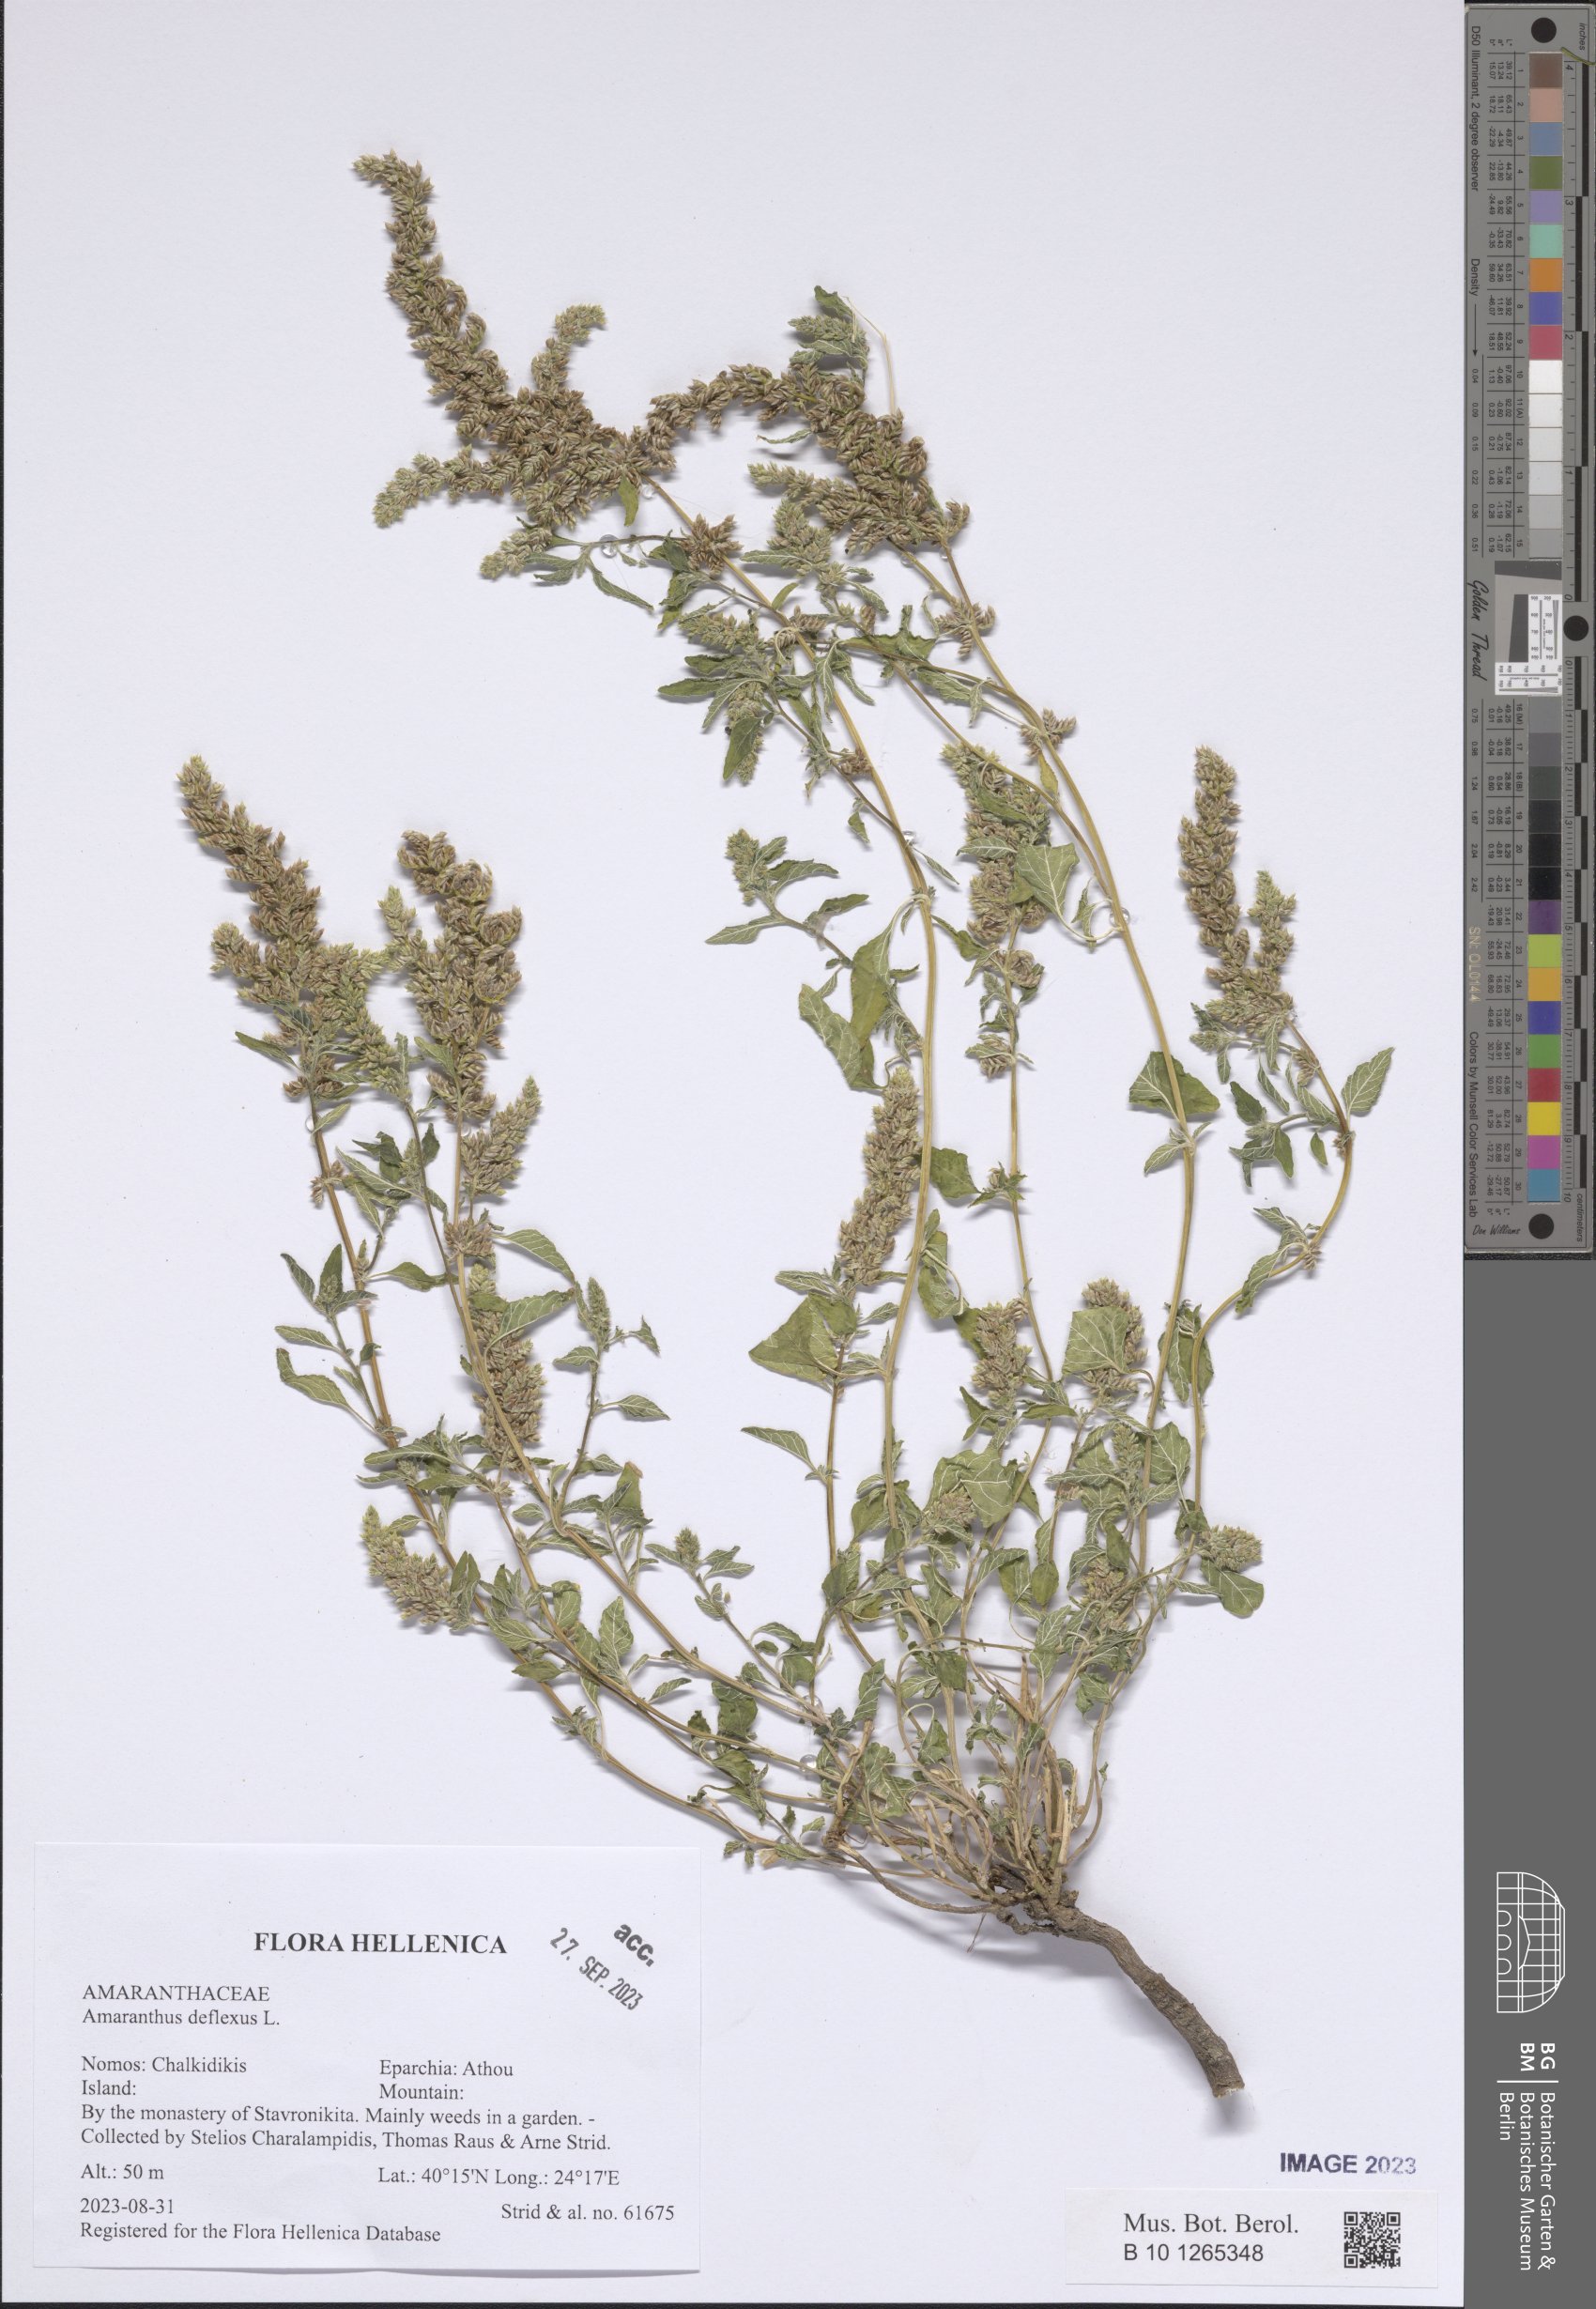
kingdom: Plantae
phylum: Tracheophyta
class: Magnoliopsida
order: Caryophyllales
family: Amaranthaceae
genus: Amaranthus
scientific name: Amaranthus deflexus
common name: Perennial pigweed
